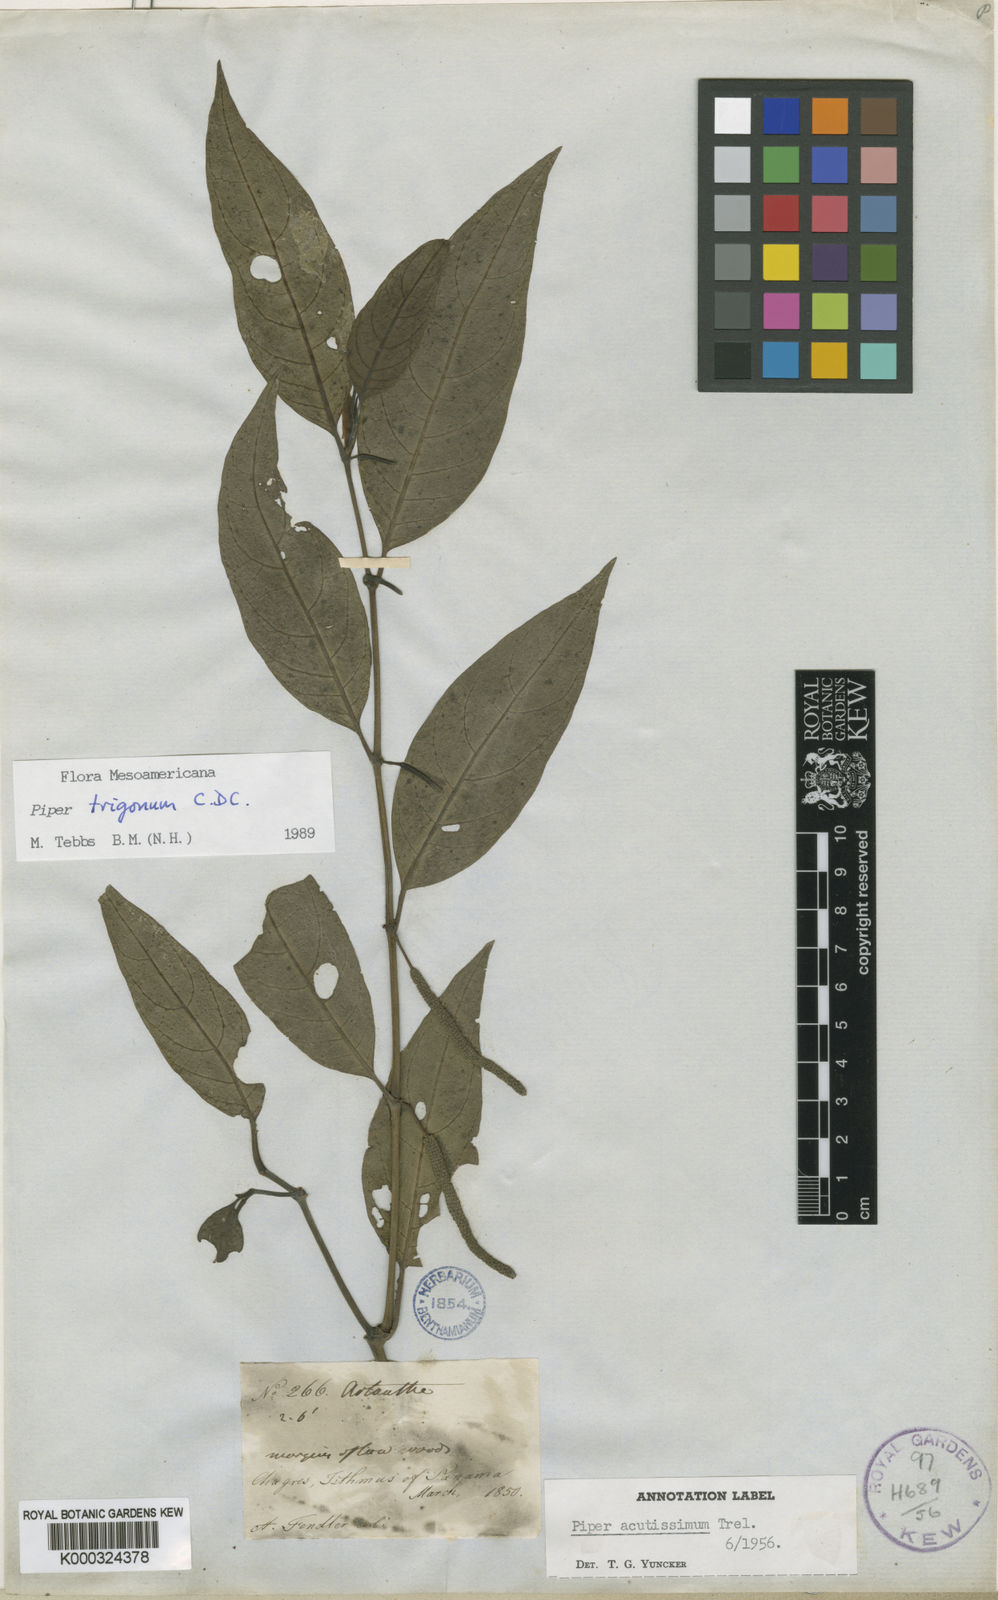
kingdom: Plantae
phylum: Tracheophyta
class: Magnoliopsida
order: Piperales
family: Piperaceae
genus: Piper
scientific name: Piper trigonum
